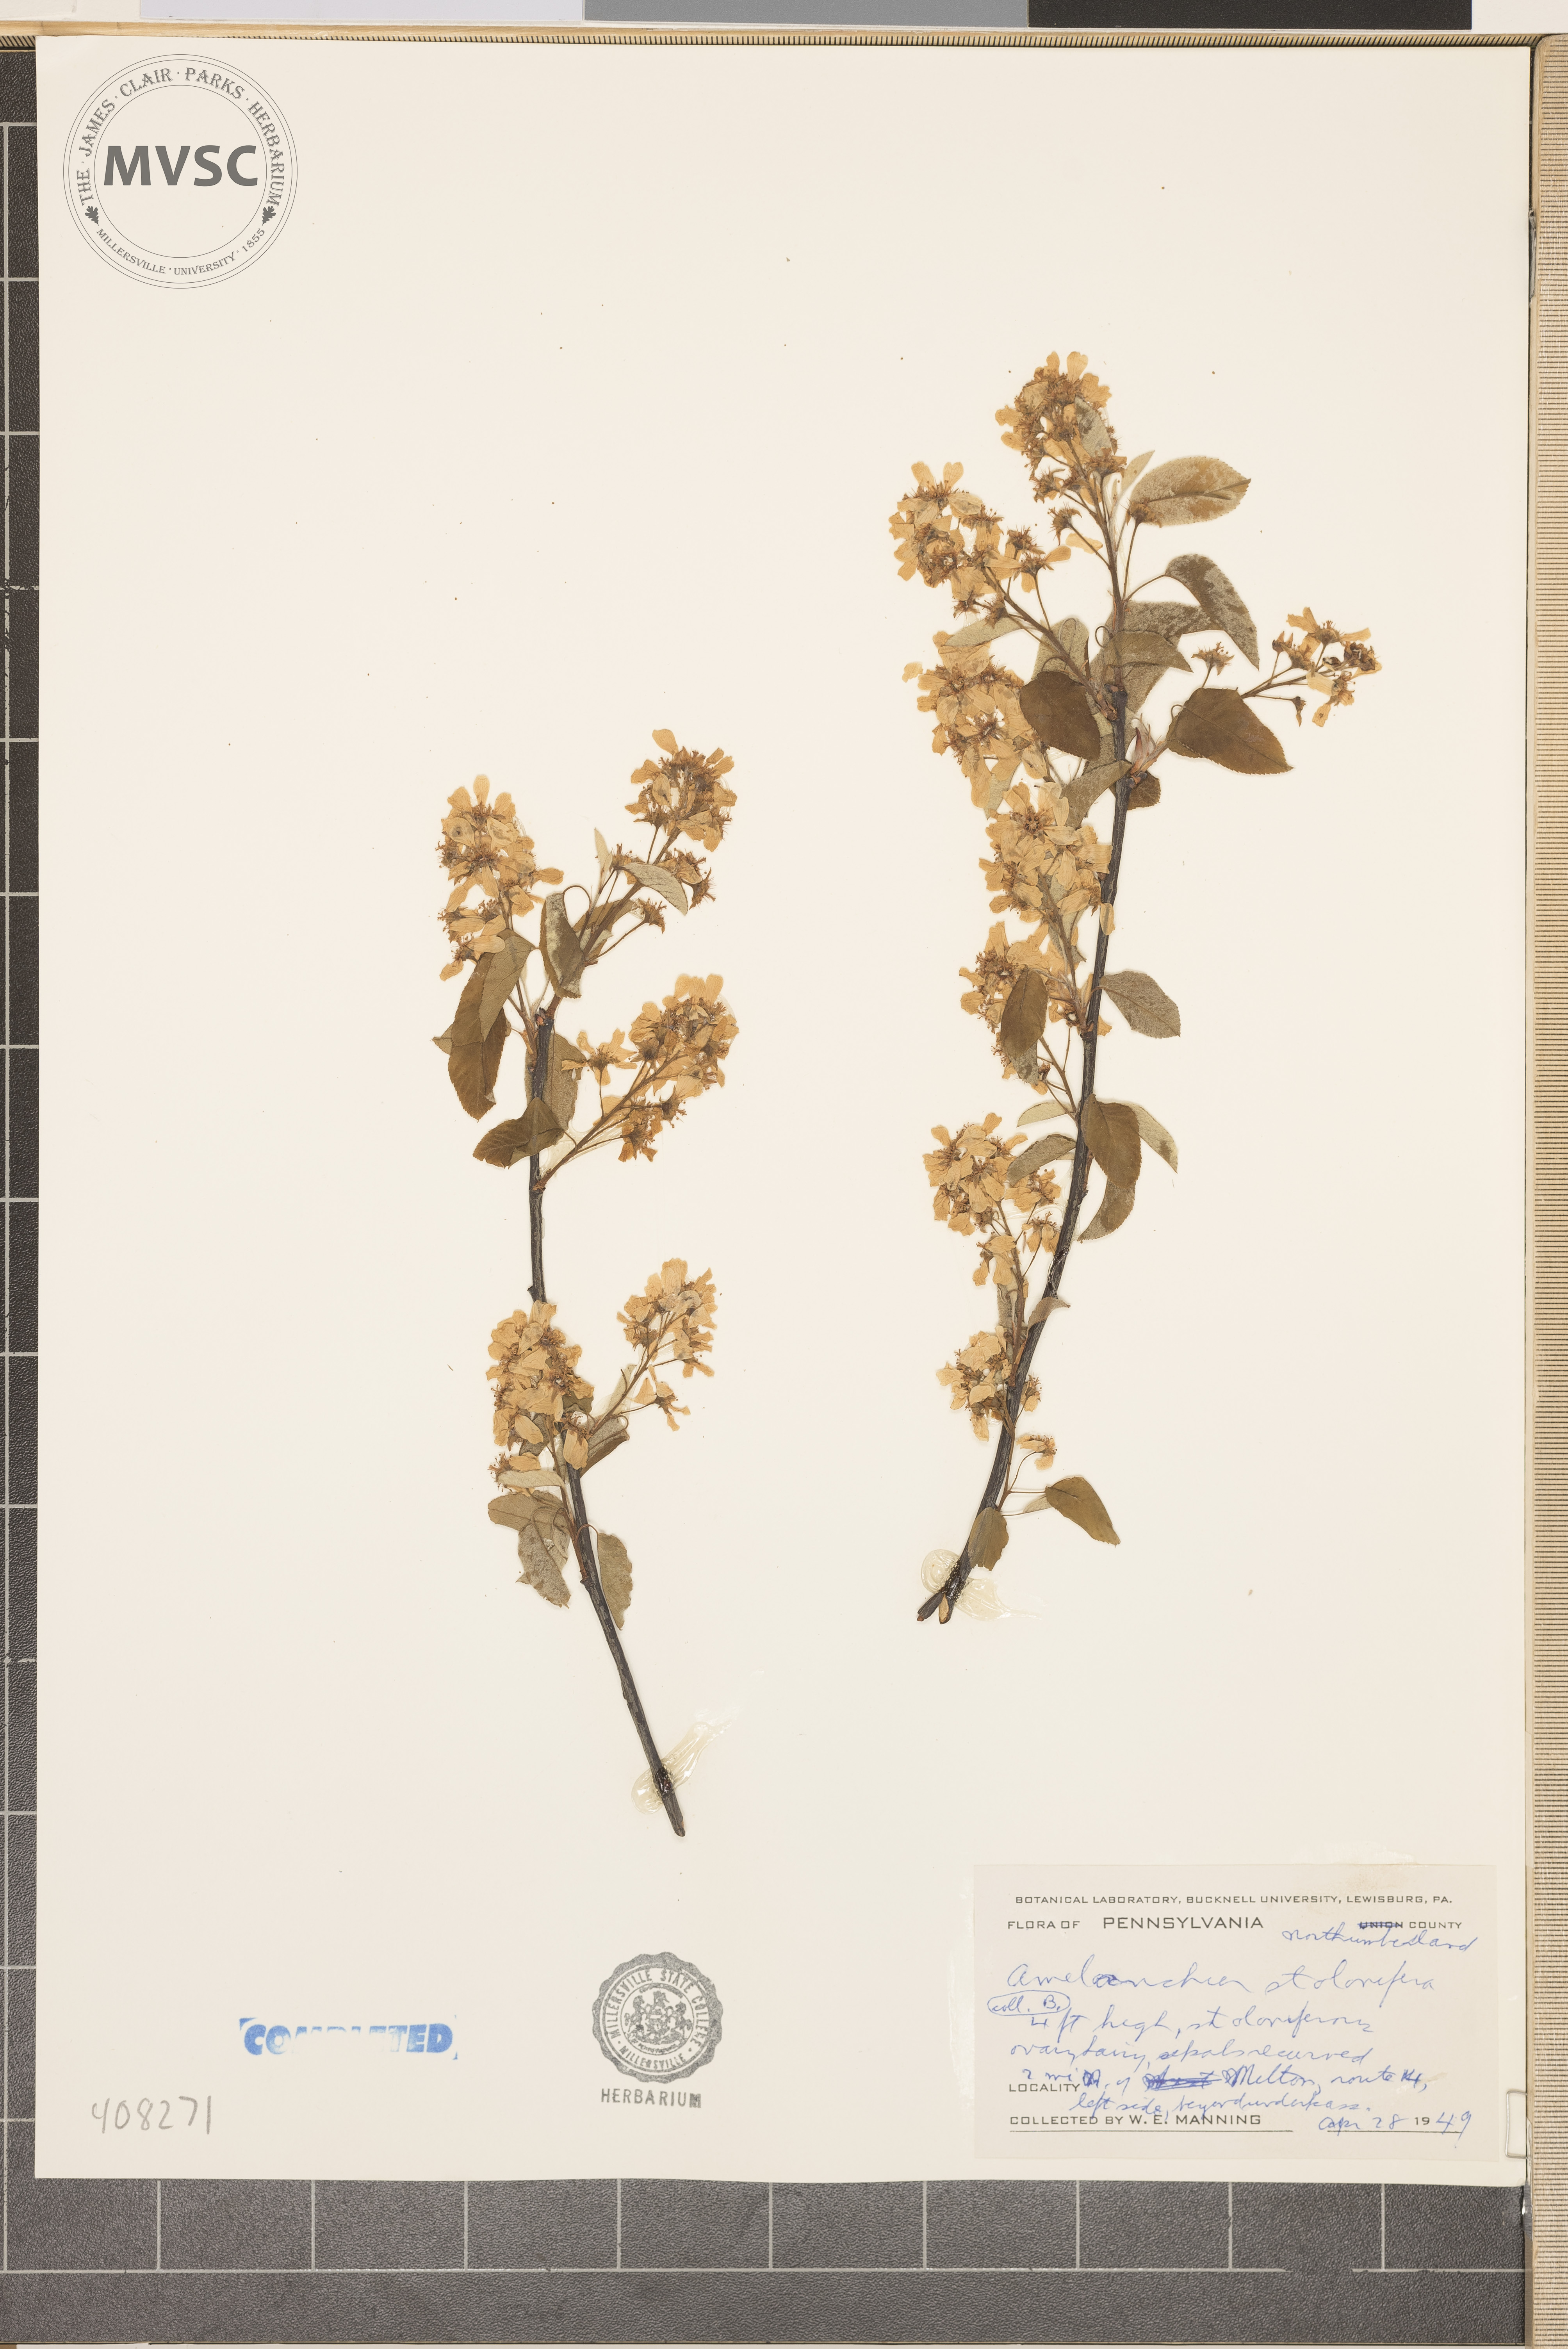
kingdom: Plantae
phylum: Tracheophyta
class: Magnoliopsida
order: Rosales
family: Rosaceae
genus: Amelanchier
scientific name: Amelanchier stolonifera
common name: Running serviceberry
